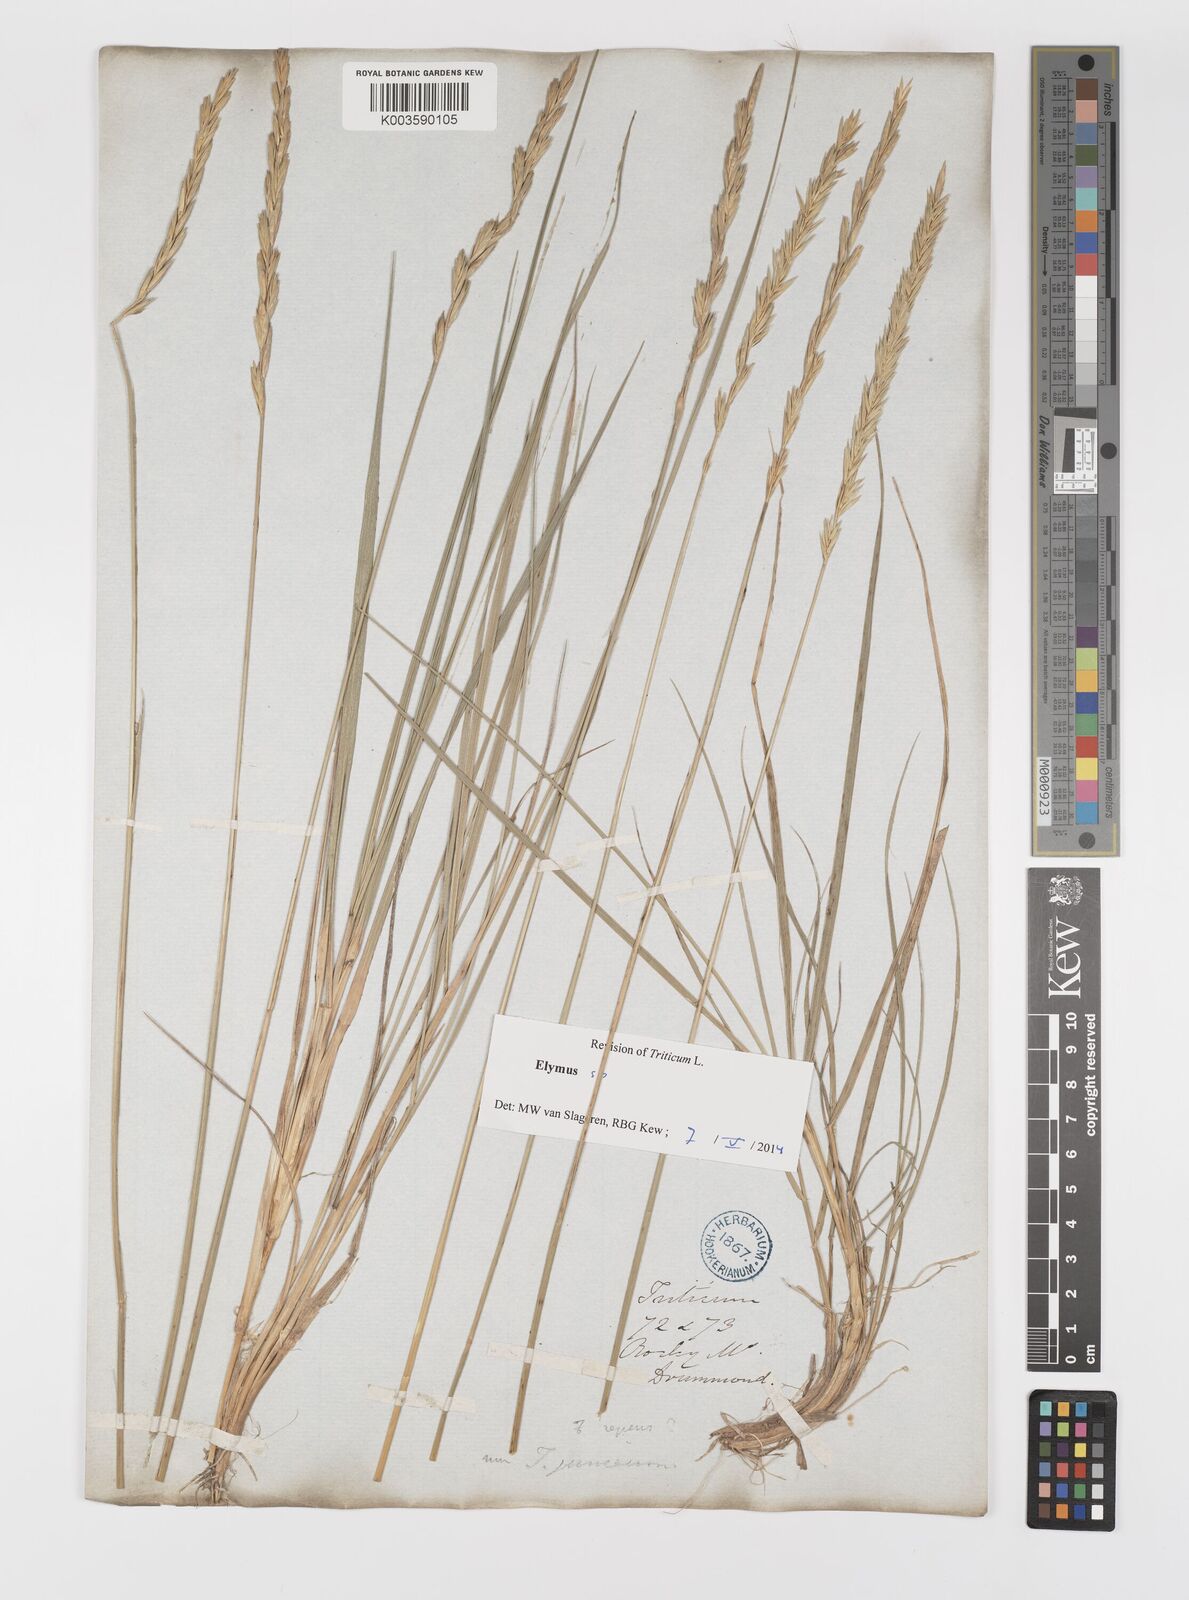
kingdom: Plantae
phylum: Tracheophyta
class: Liliopsida
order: Poales
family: Poaceae
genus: Elymus
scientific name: Elymus repens
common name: Quackgrass
